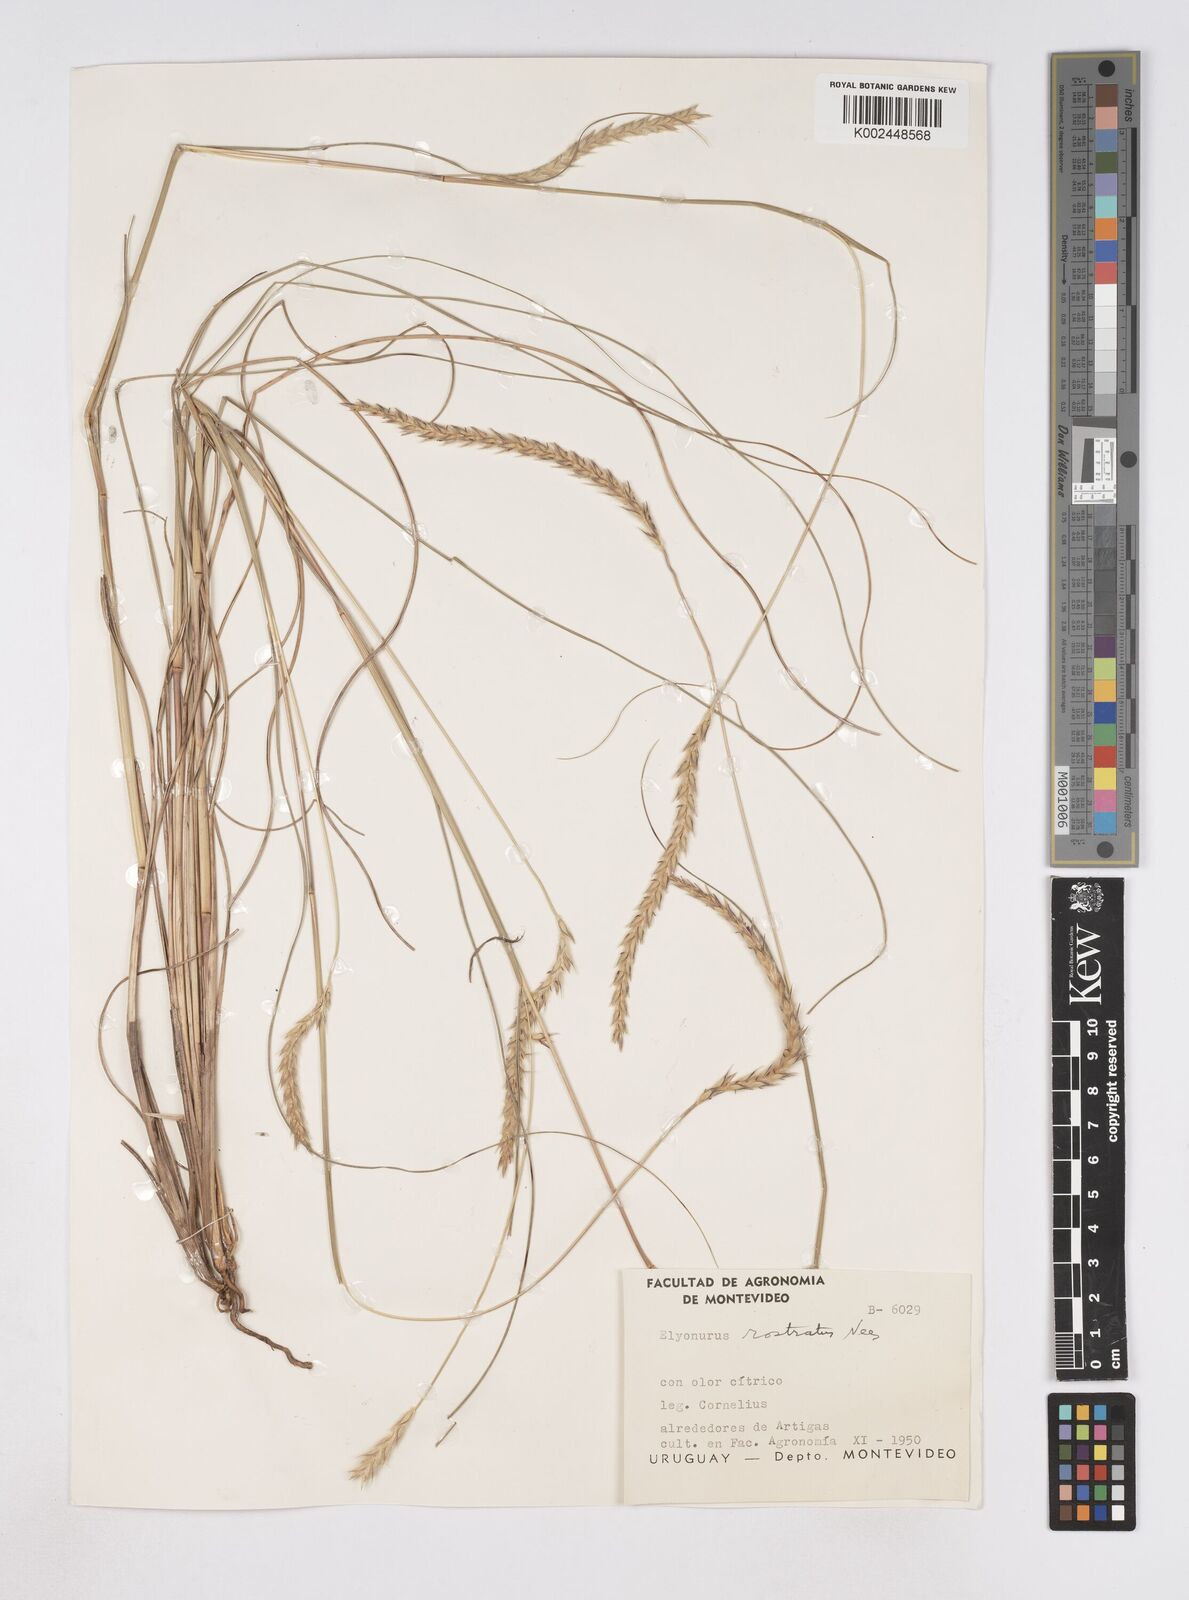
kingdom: Plantae
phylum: Tracheophyta
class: Liliopsida
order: Poales
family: Poaceae
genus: Elionurus
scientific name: Elionurus muticus
